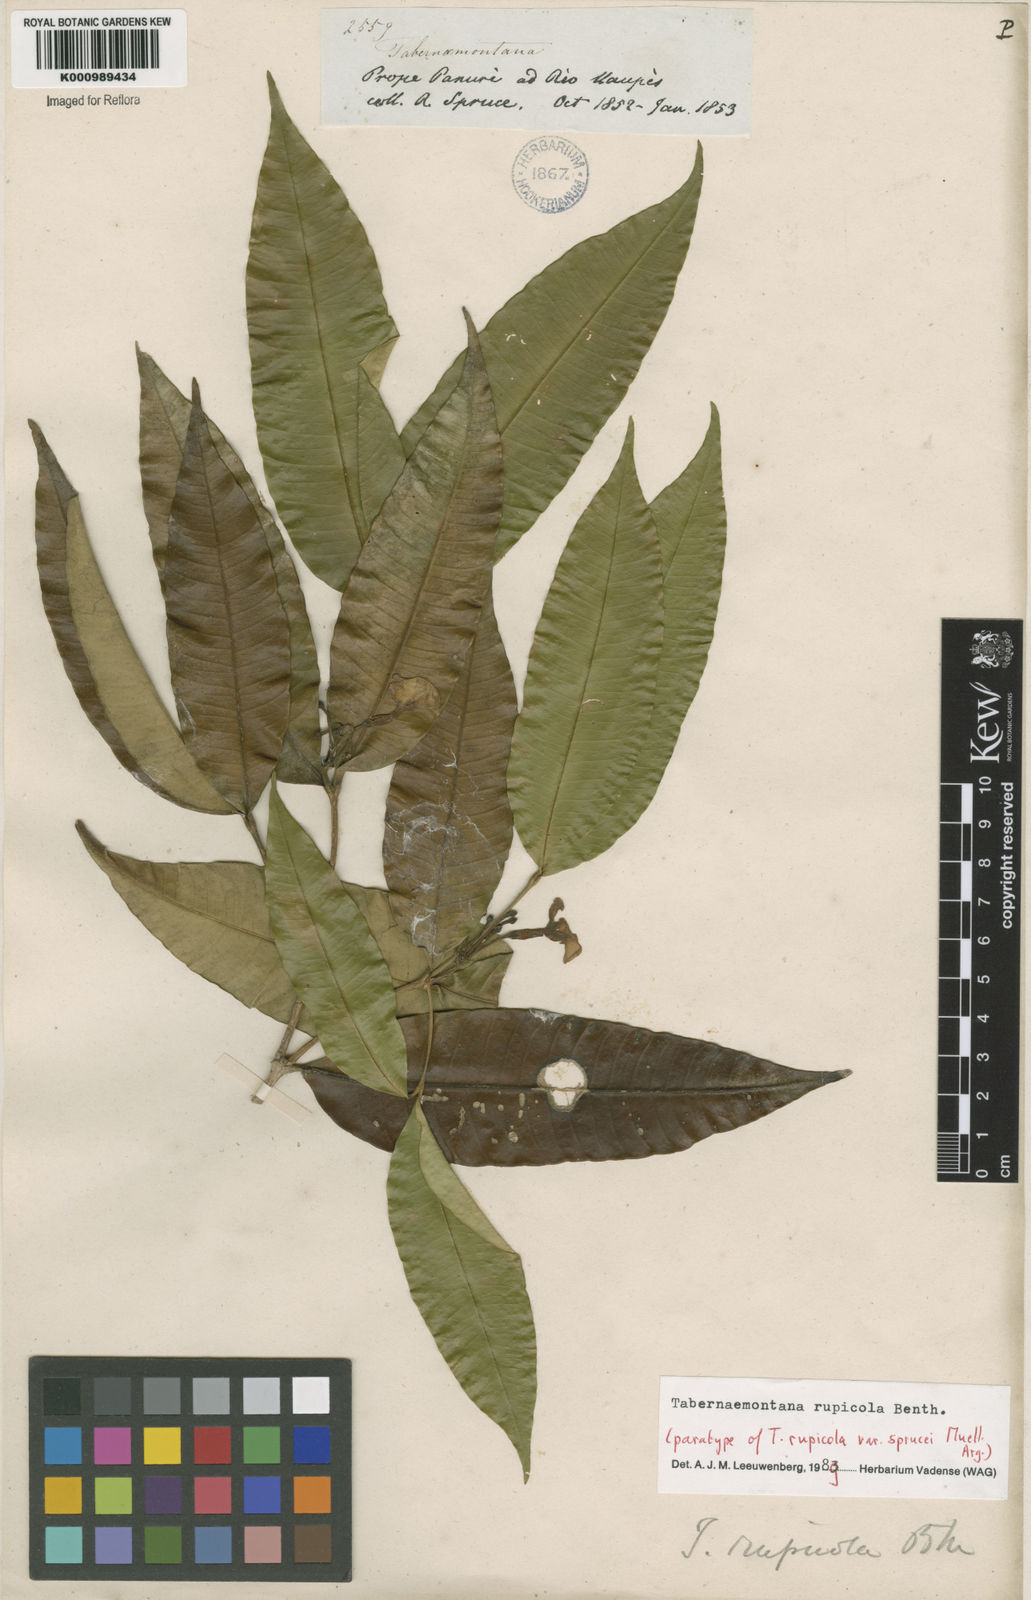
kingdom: Plantae
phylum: Tracheophyta
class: Magnoliopsida
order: Gentianales
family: Apocynaceae
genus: Tabernaemontana
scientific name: Tabernaemontana rupicola
